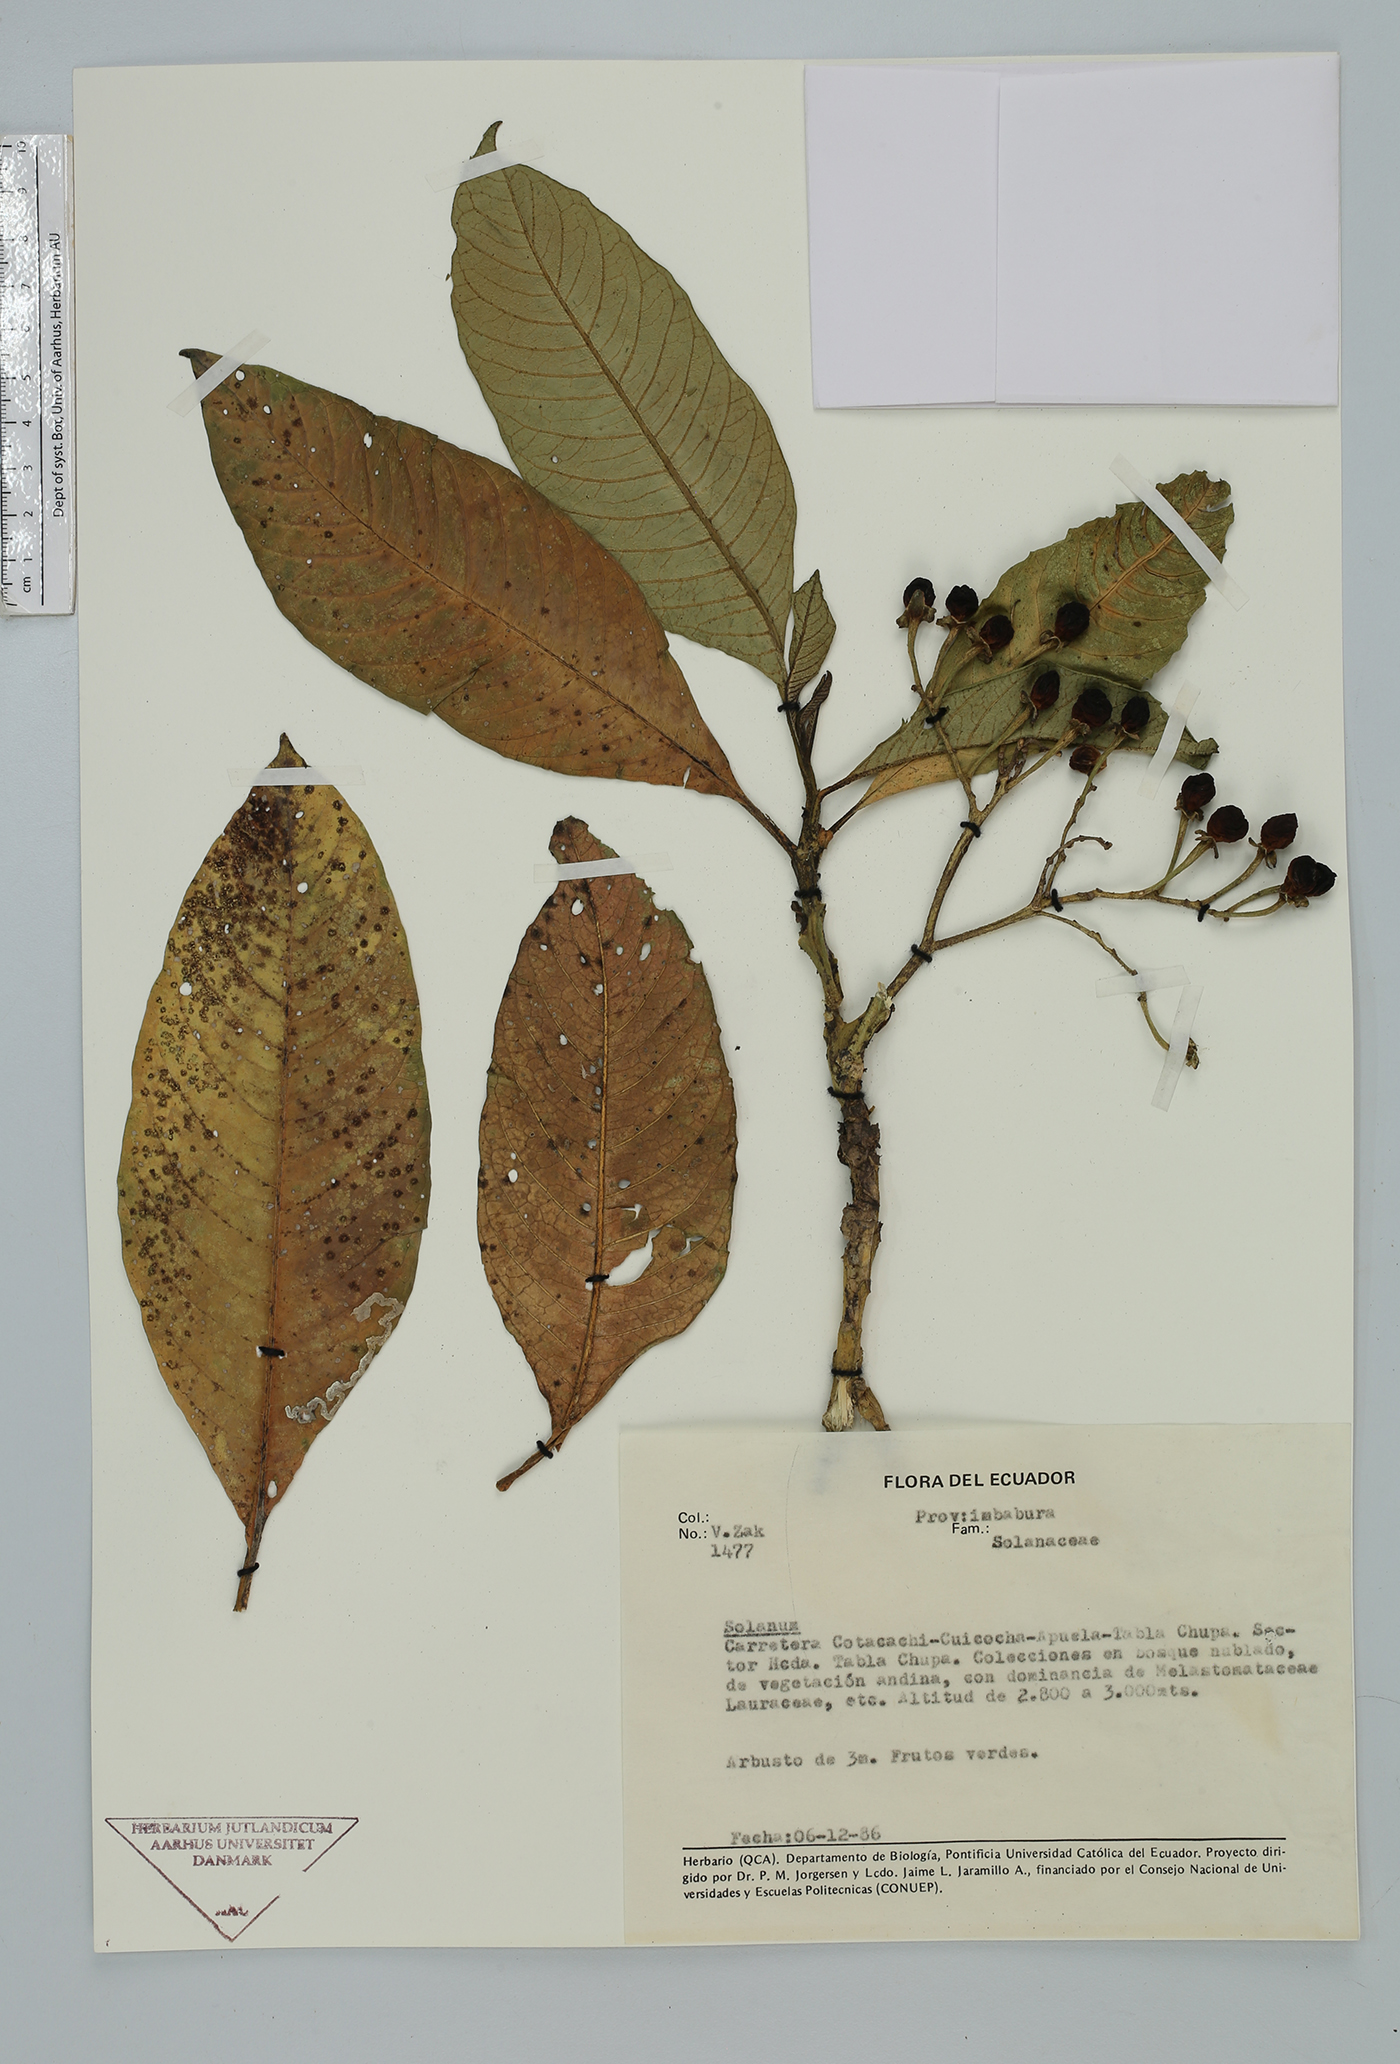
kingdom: Plantae
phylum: Tracheophyta
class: Magnoliopsida
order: Solanales
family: Solanaceae
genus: Solanum
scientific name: Solanum
